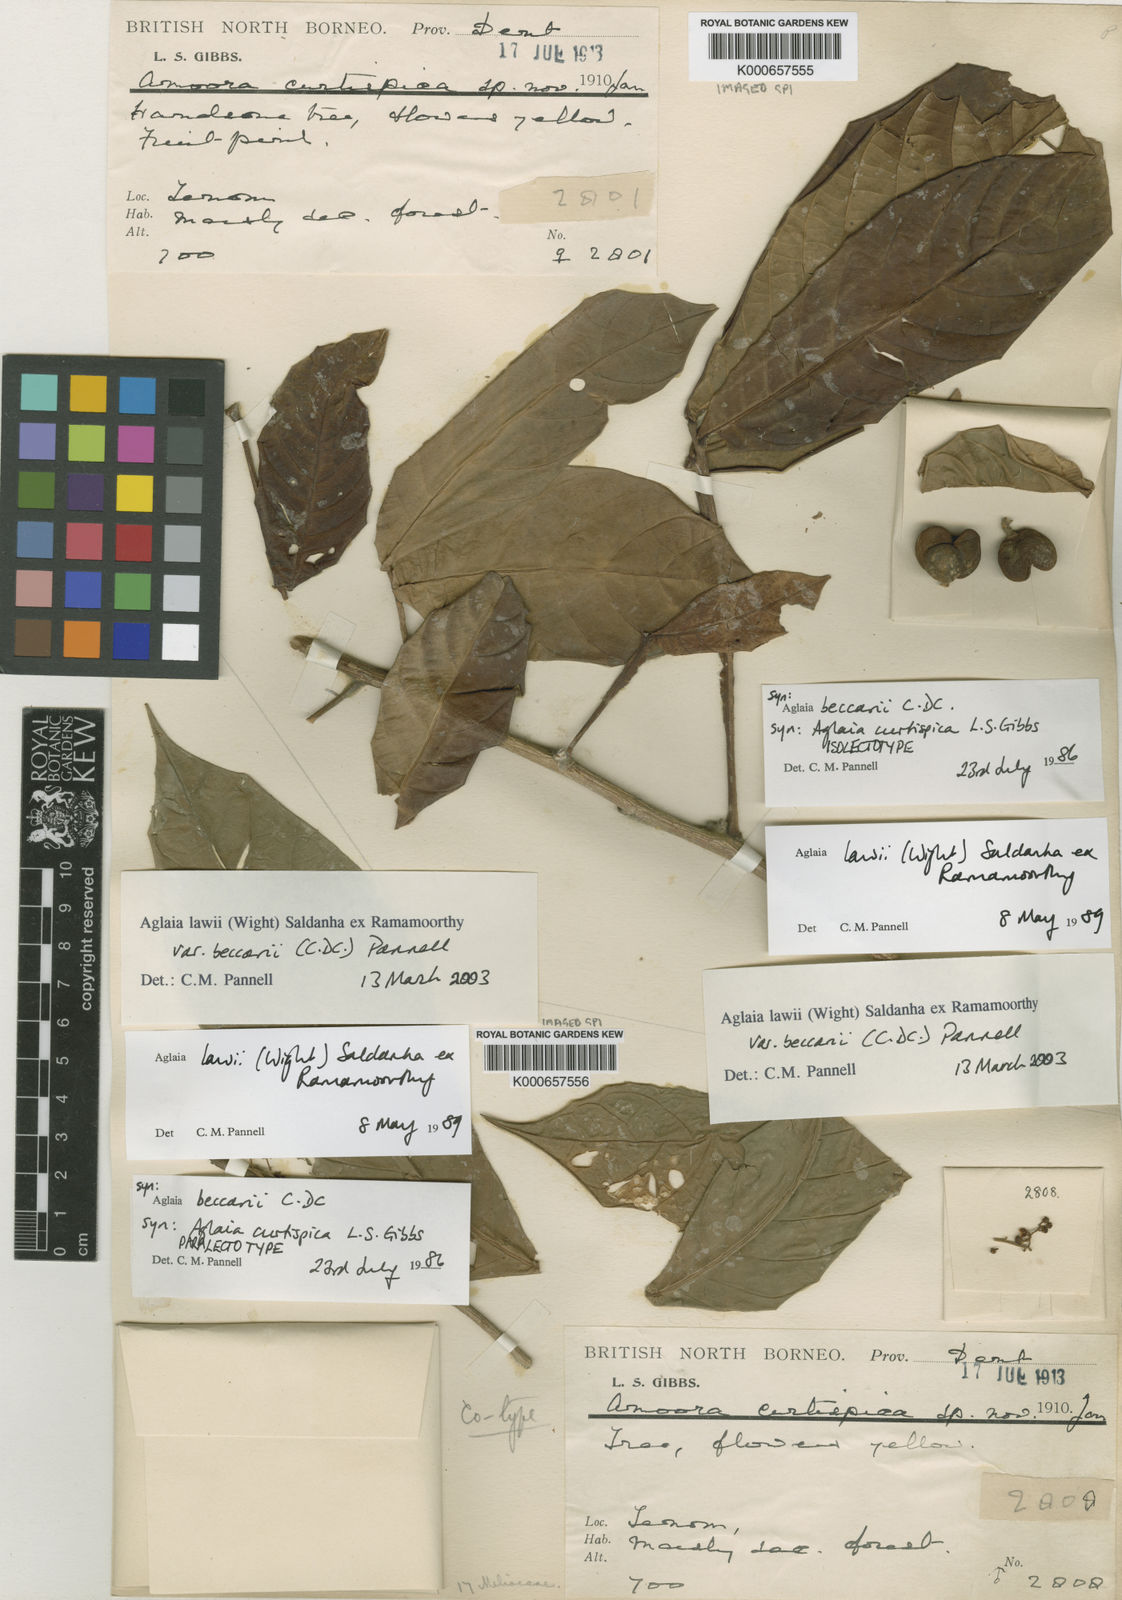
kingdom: Plantae
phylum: Tracheophyta
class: Magnoliopsida
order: Sapindales
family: Meliaceae
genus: Aglaia
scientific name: Aglaia beccarii
